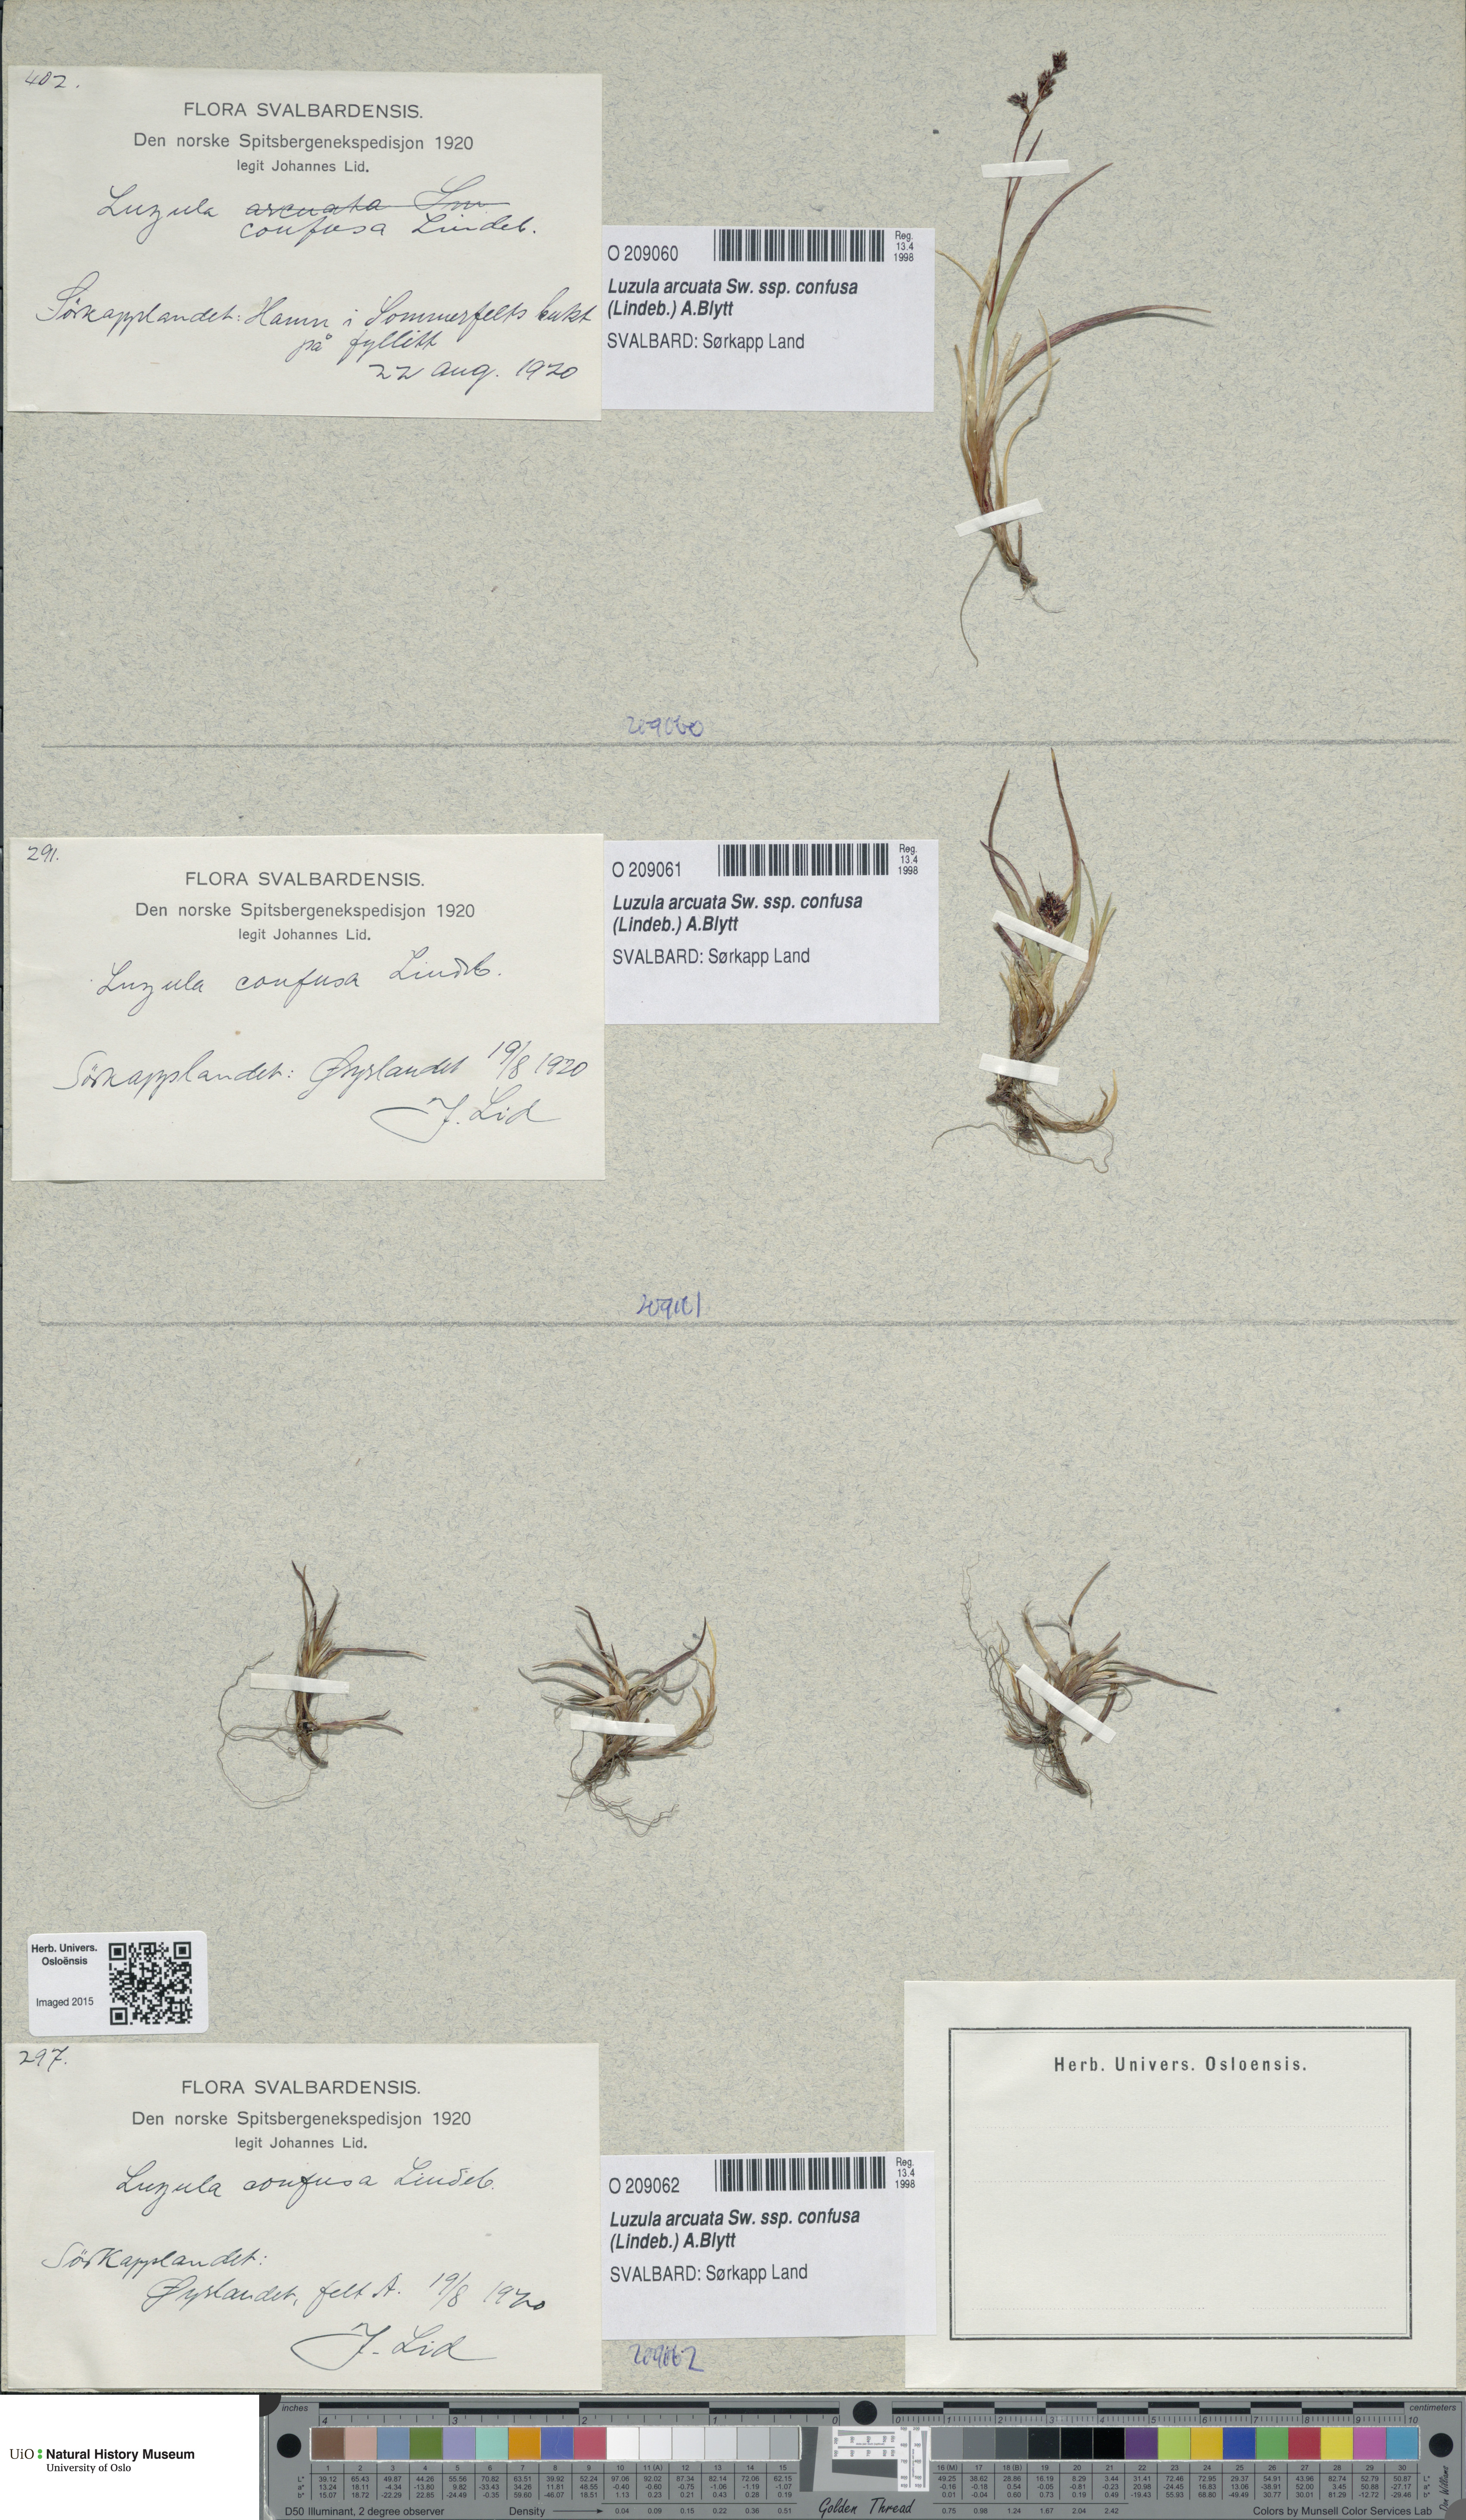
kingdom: Plantae
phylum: Tracheophyta
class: Liliopsida
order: Poales
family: Juncaceae
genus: Luzula
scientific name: Luzula confusa
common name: Northern wood rush
